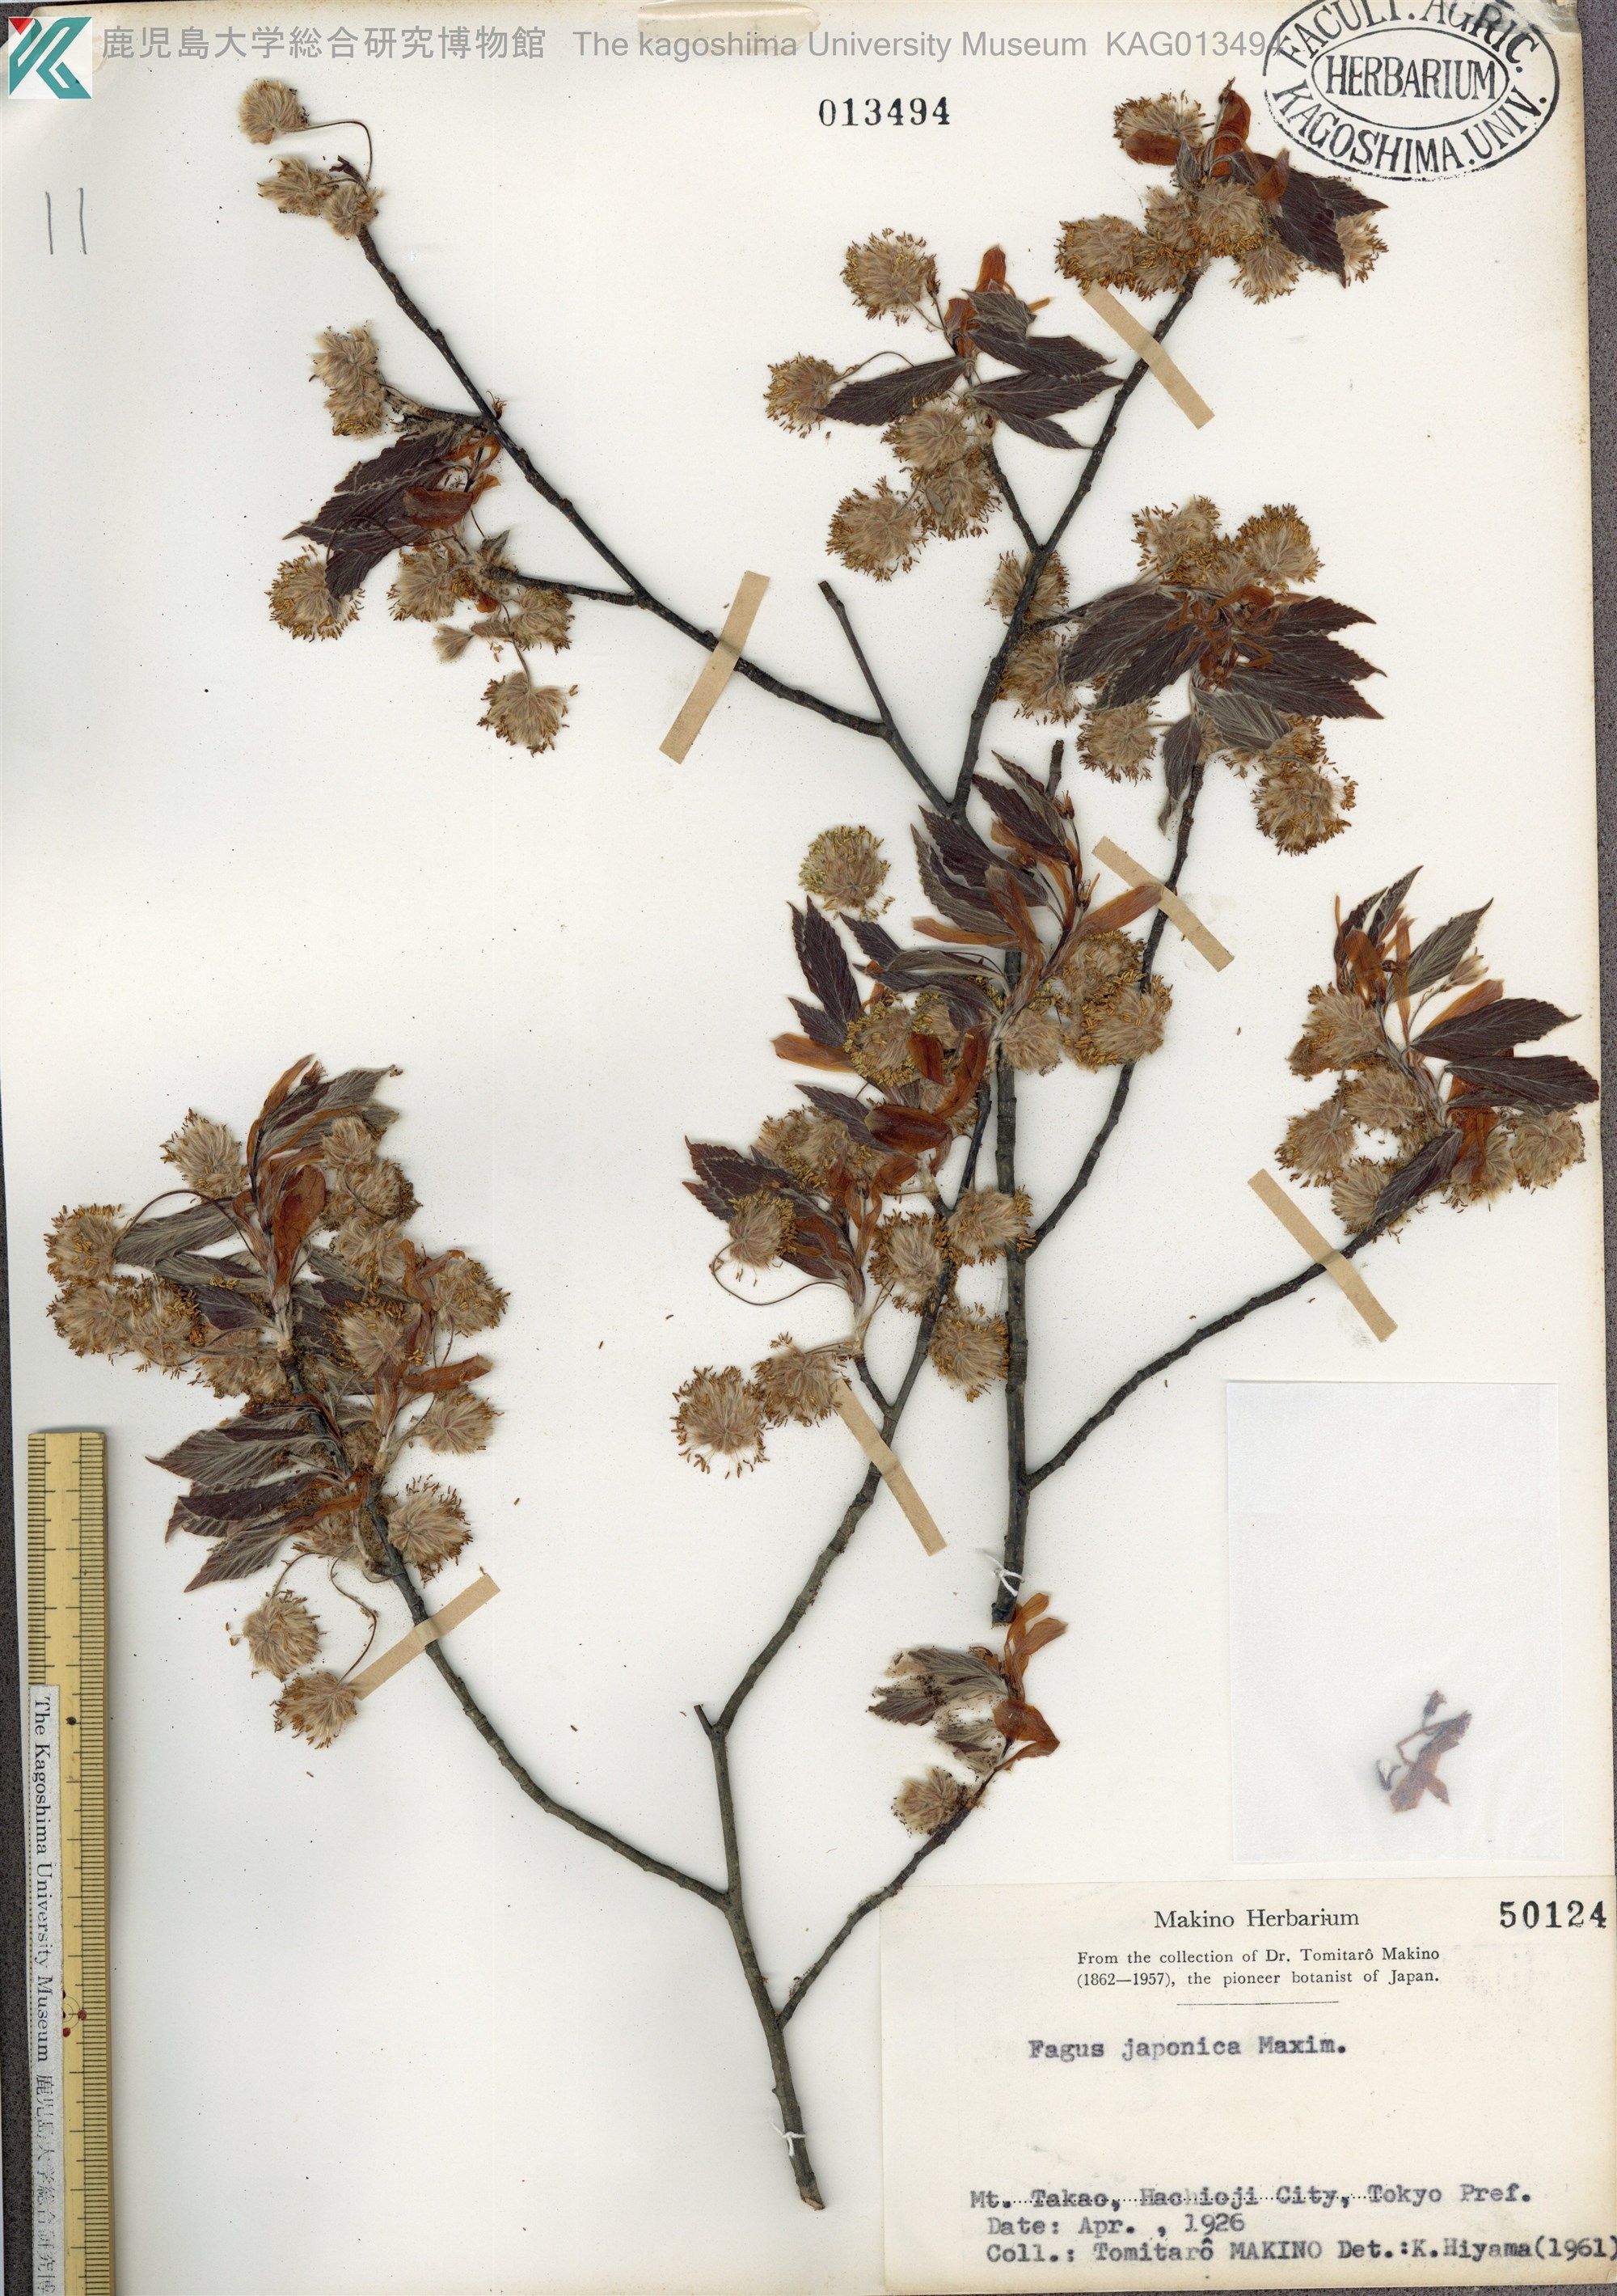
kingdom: Plantae
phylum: Tracheophyta
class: Magnoliopsida
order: Fagales
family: Fagaceae
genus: Fagus
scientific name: Fagus japonica
